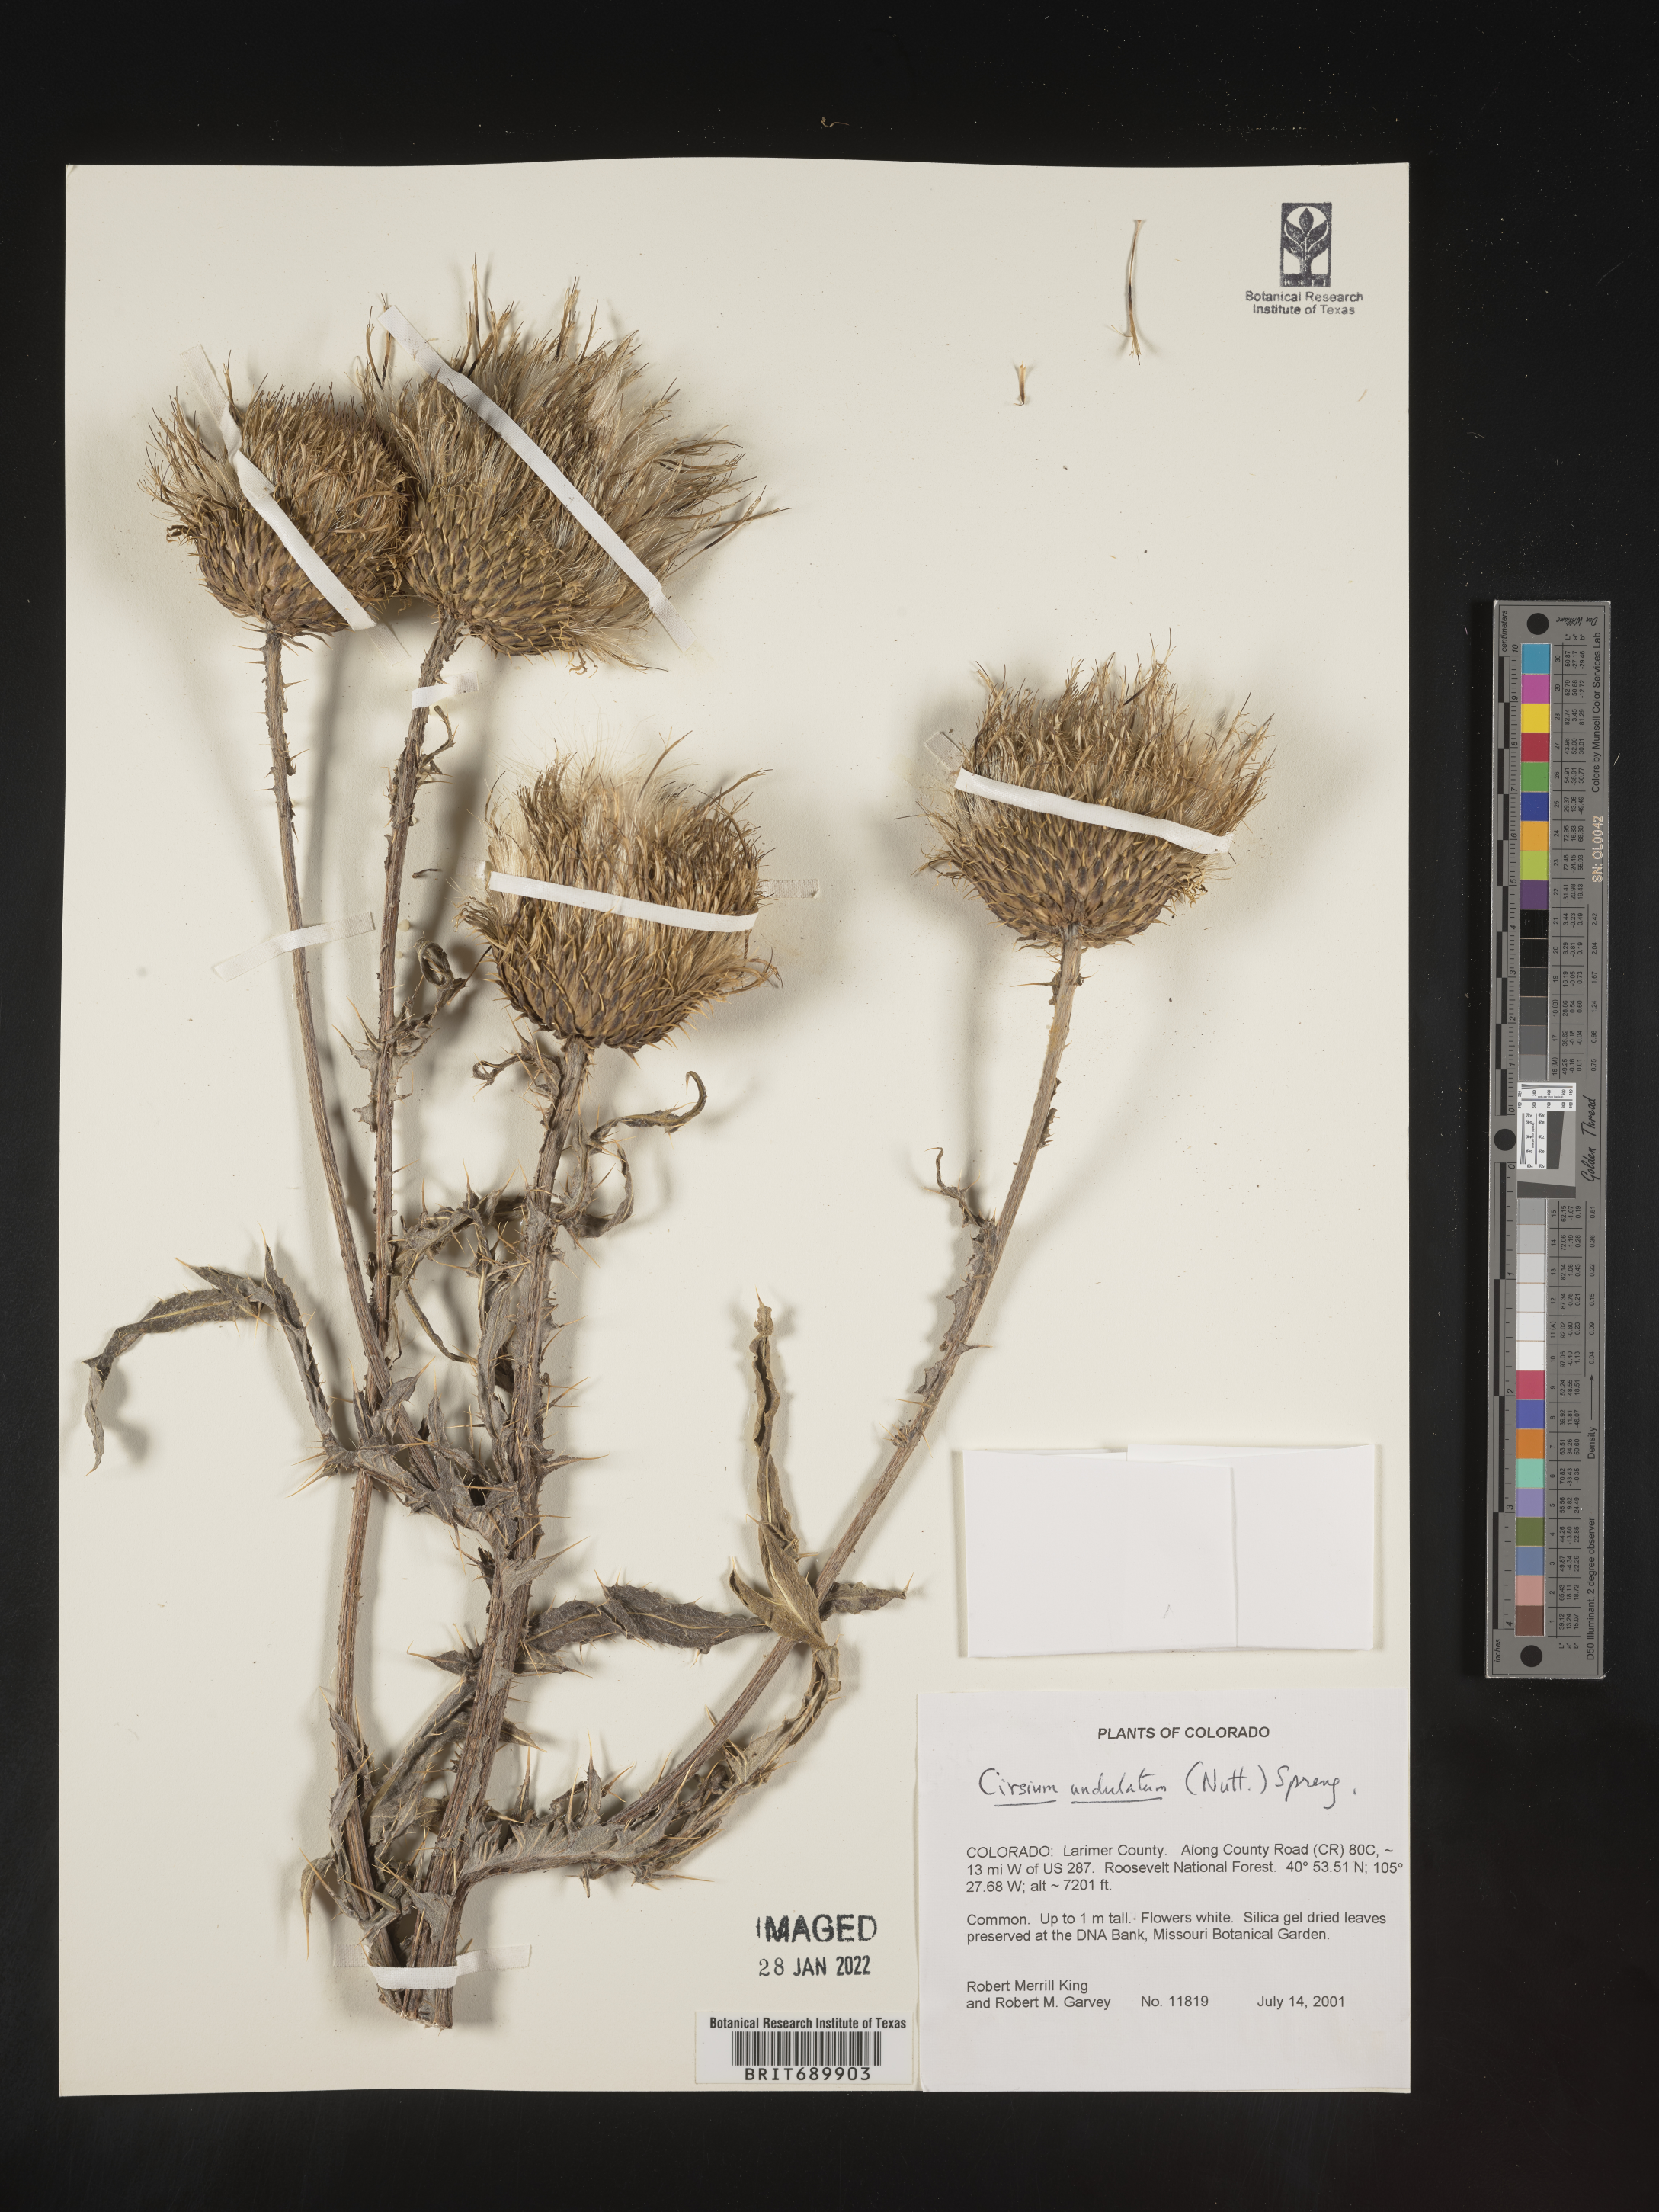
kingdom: Plantae
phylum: Tracheophyta
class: Magnoliopsida
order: Asterales
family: Asteraceae
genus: Cirsium
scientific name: Cirsium undulatum
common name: Pasture thistle
